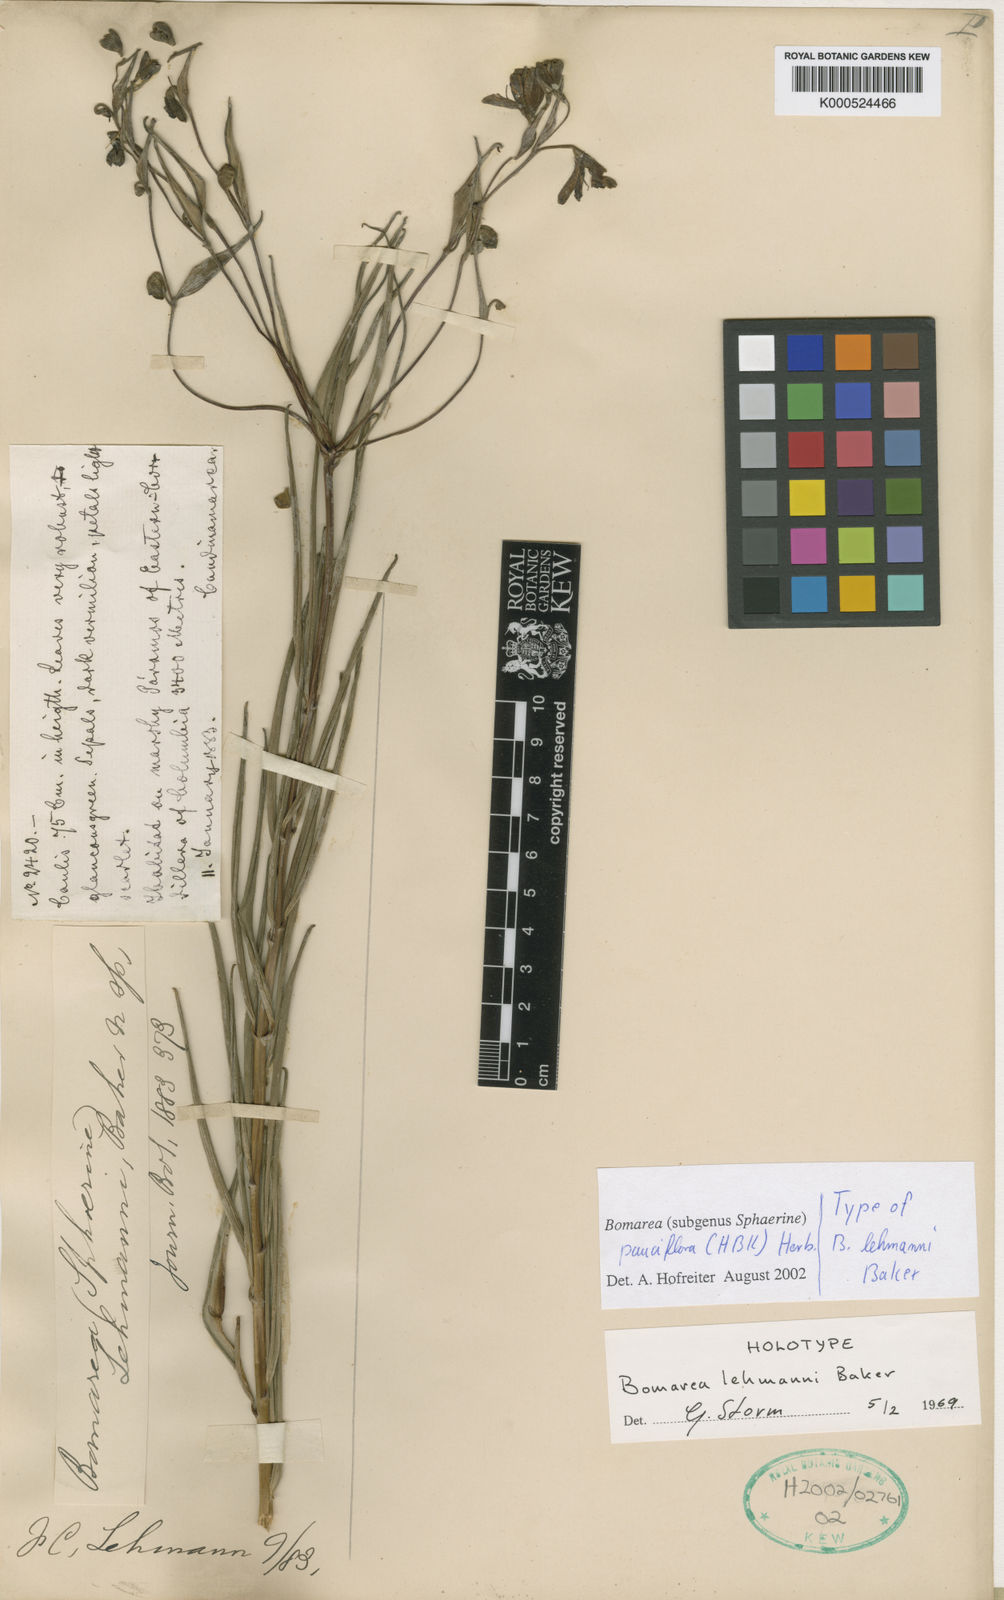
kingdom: Plantae
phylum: Tracheophyta
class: Liliopsida
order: Liliales
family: Alstroemeriaceae
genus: Bomarea
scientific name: Bomarea pauciflora
